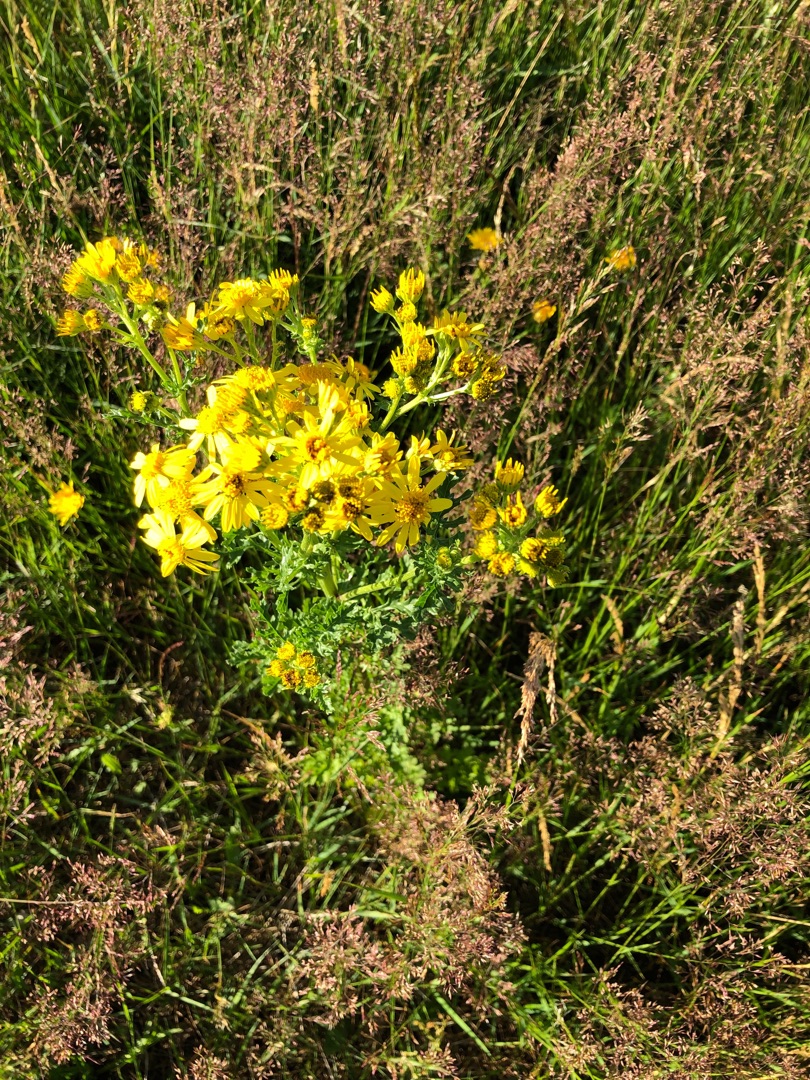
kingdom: Plantae
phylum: Tracheophyta
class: Magnoliopsida
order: Asterales
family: Asteraceae
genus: Jacobaea
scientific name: Jacobaea vulgaris
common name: Eng-brandbæger
